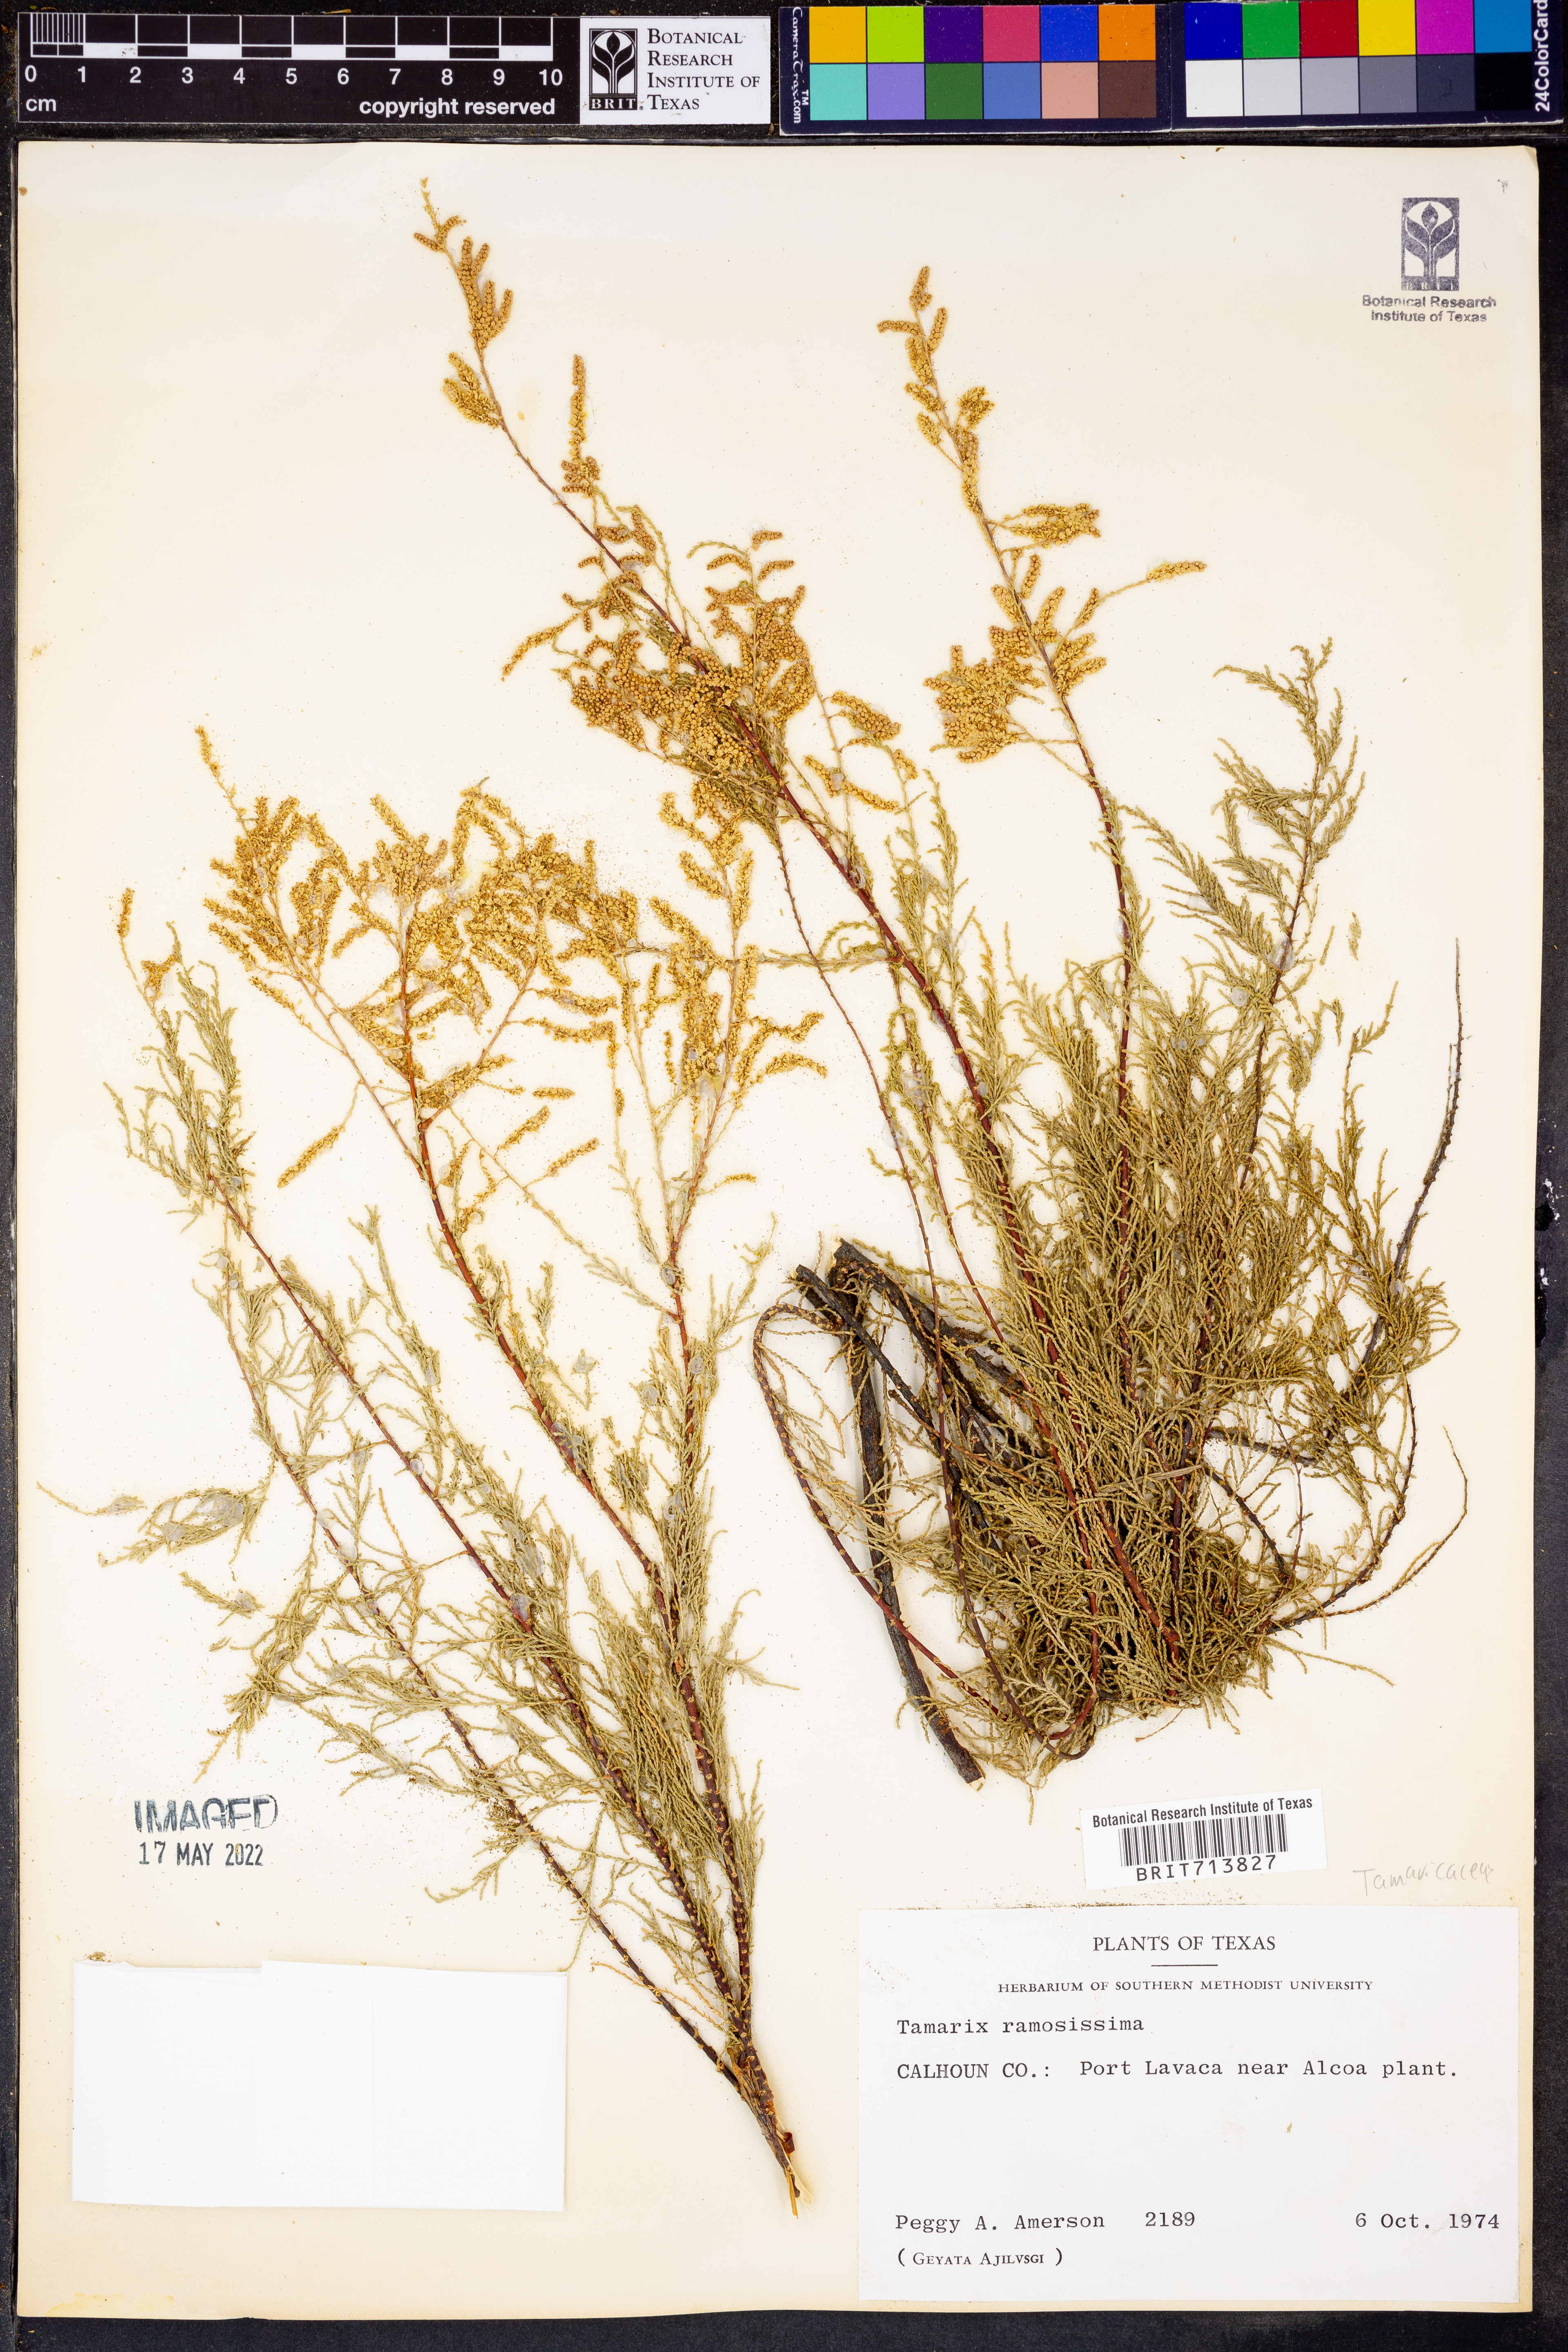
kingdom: Plantae
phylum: Tracheophyta
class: Magnoliopsida
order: Caryophyllales
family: Tamaricaceae
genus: Tamarix
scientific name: Tamarix ramosissima
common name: Pink tamarisk
